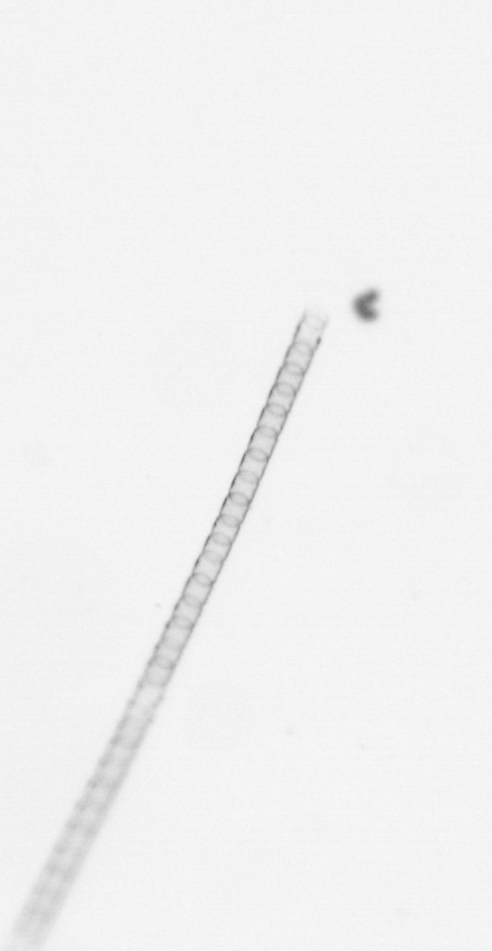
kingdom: Chromista
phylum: Ochrophyta
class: Bacillariophyceae
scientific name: Bacillariophyceae
